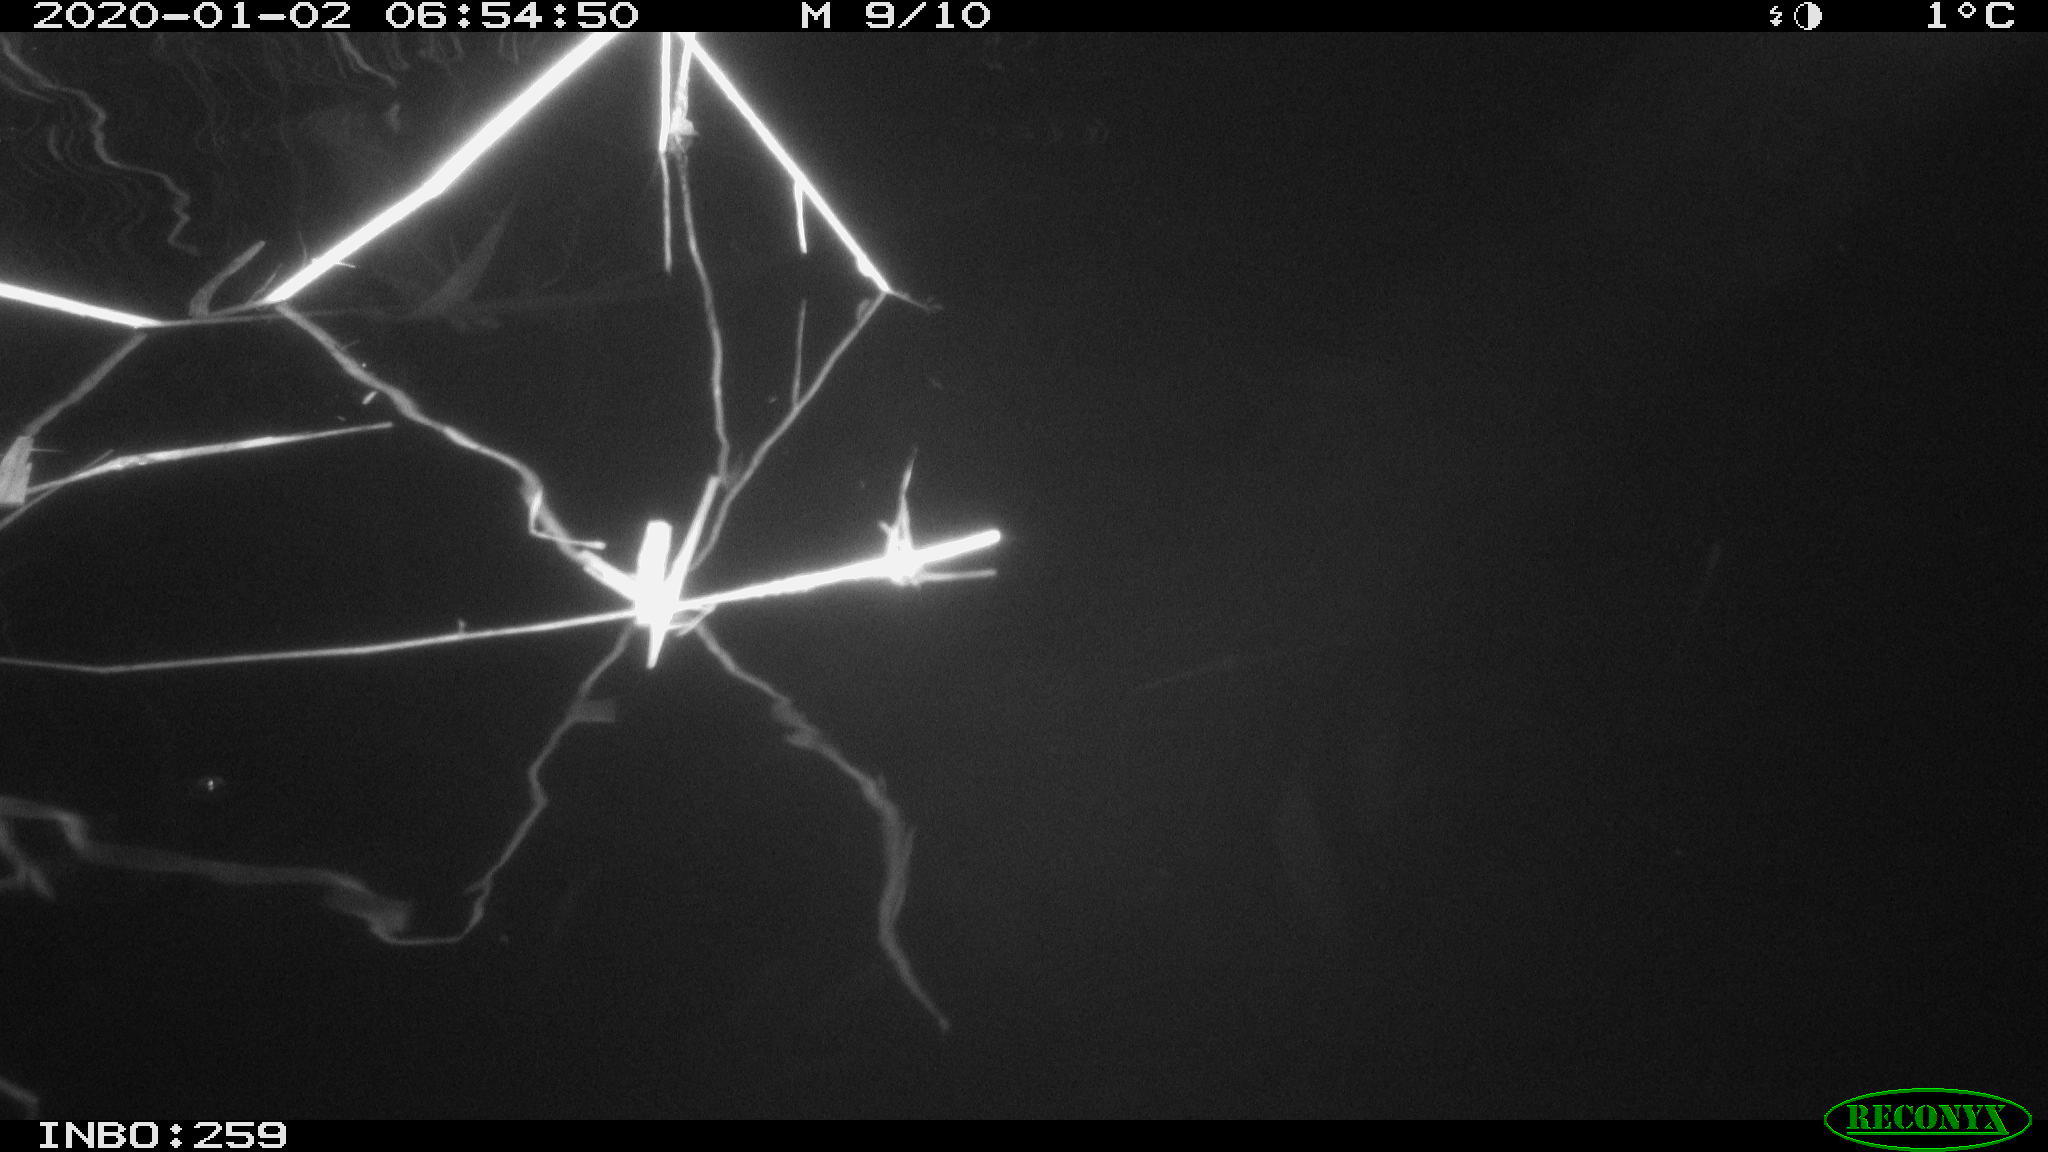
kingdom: Animalia
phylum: Chordata
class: Mammalia
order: Rodentia
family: Cricetidae
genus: Ondatra
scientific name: Ondatra zibethicus
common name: Muskrat
